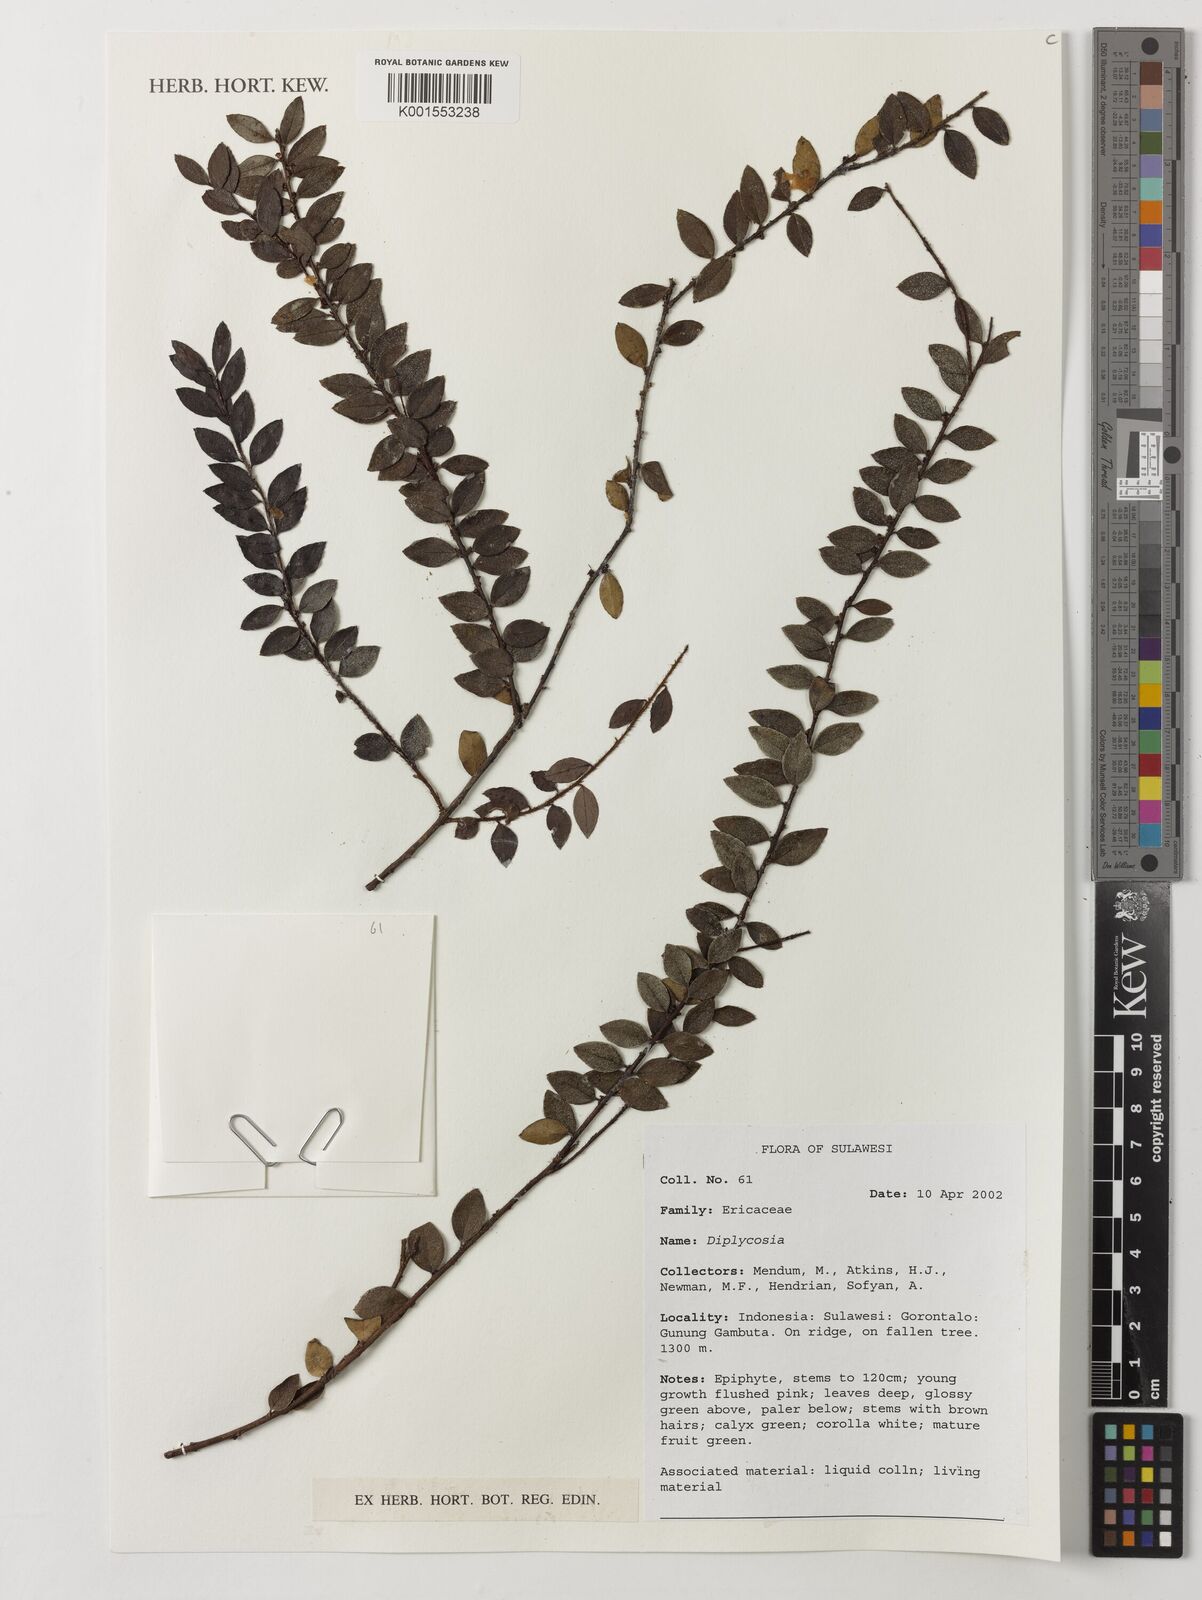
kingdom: Plantae
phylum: Tracheophyta
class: Magnoliopsida
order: Ericales
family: Ericaceae
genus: Gaultheria
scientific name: Gaultheria
